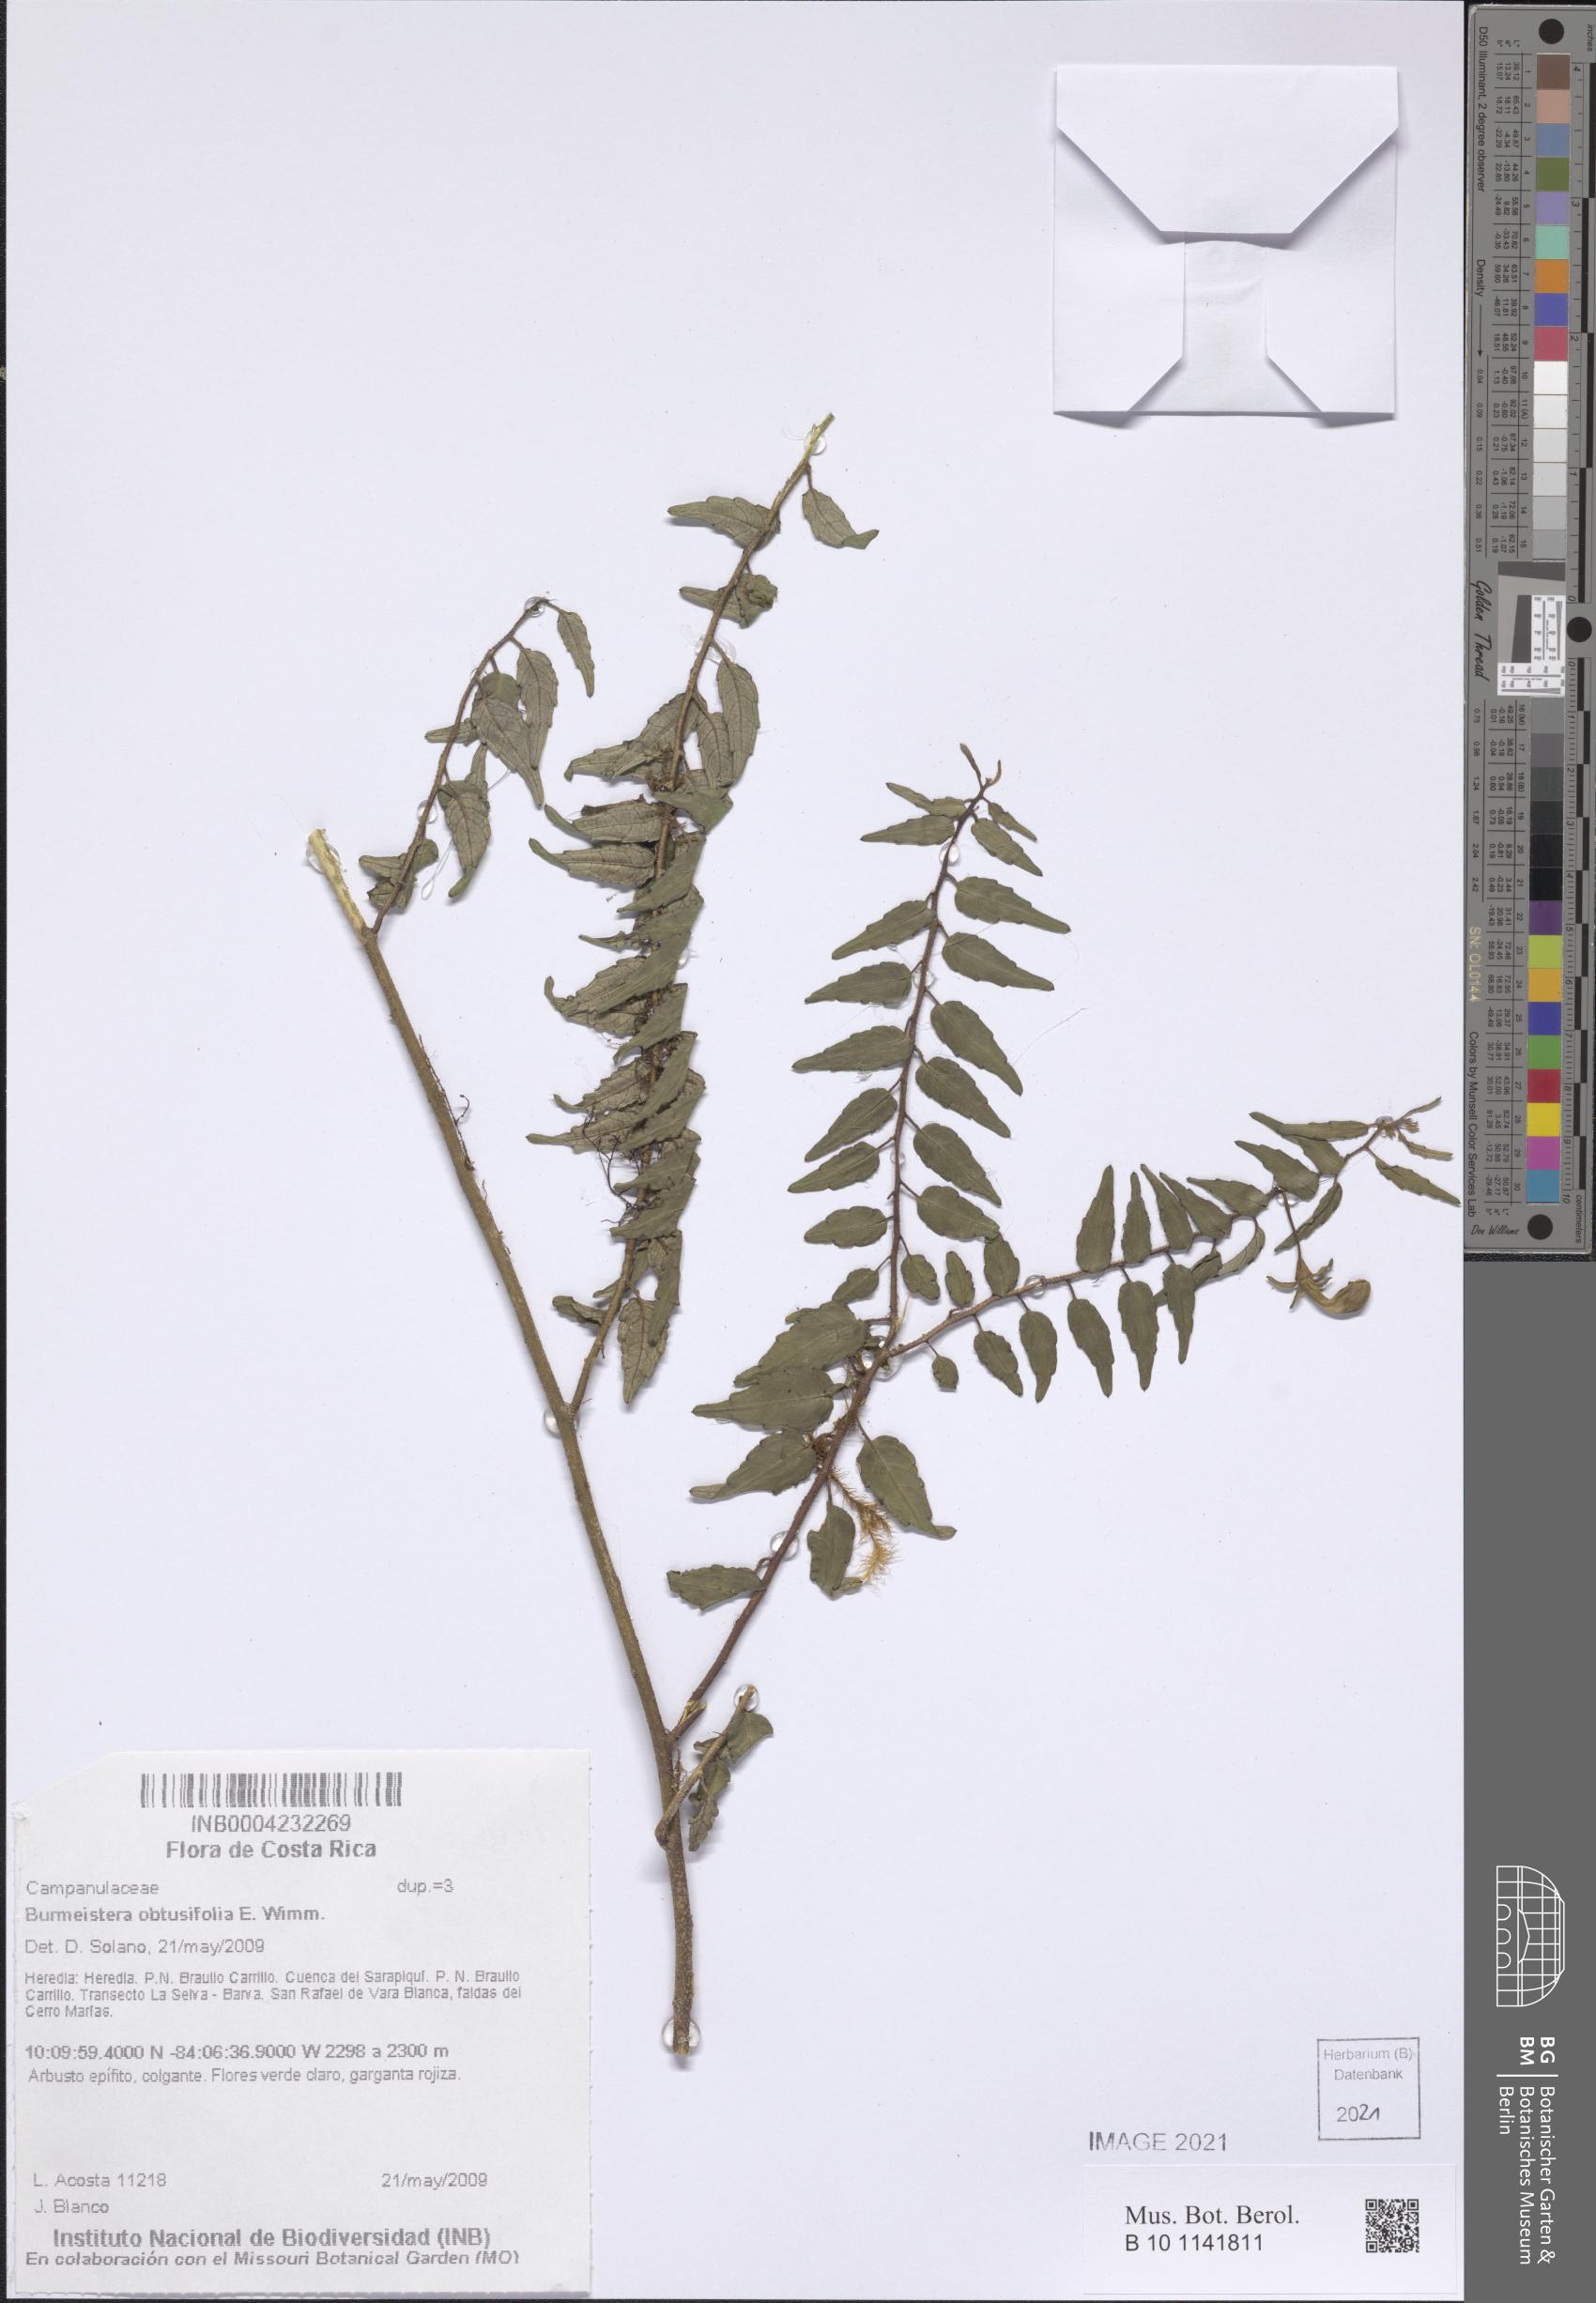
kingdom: Plantae
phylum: Tracheophyta
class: Magnoliopsida
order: Asterales
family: Campanulaceae
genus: Burmeistera
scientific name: Burmeistera obtusifolia
